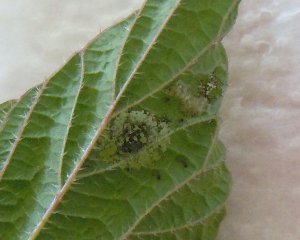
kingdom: Animalia
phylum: Arthropoda
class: Insecta
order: Lepidoptera
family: Nymphalidae
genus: Aglais
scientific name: Aglais milberti
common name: Milbert's Tortoiseshell
